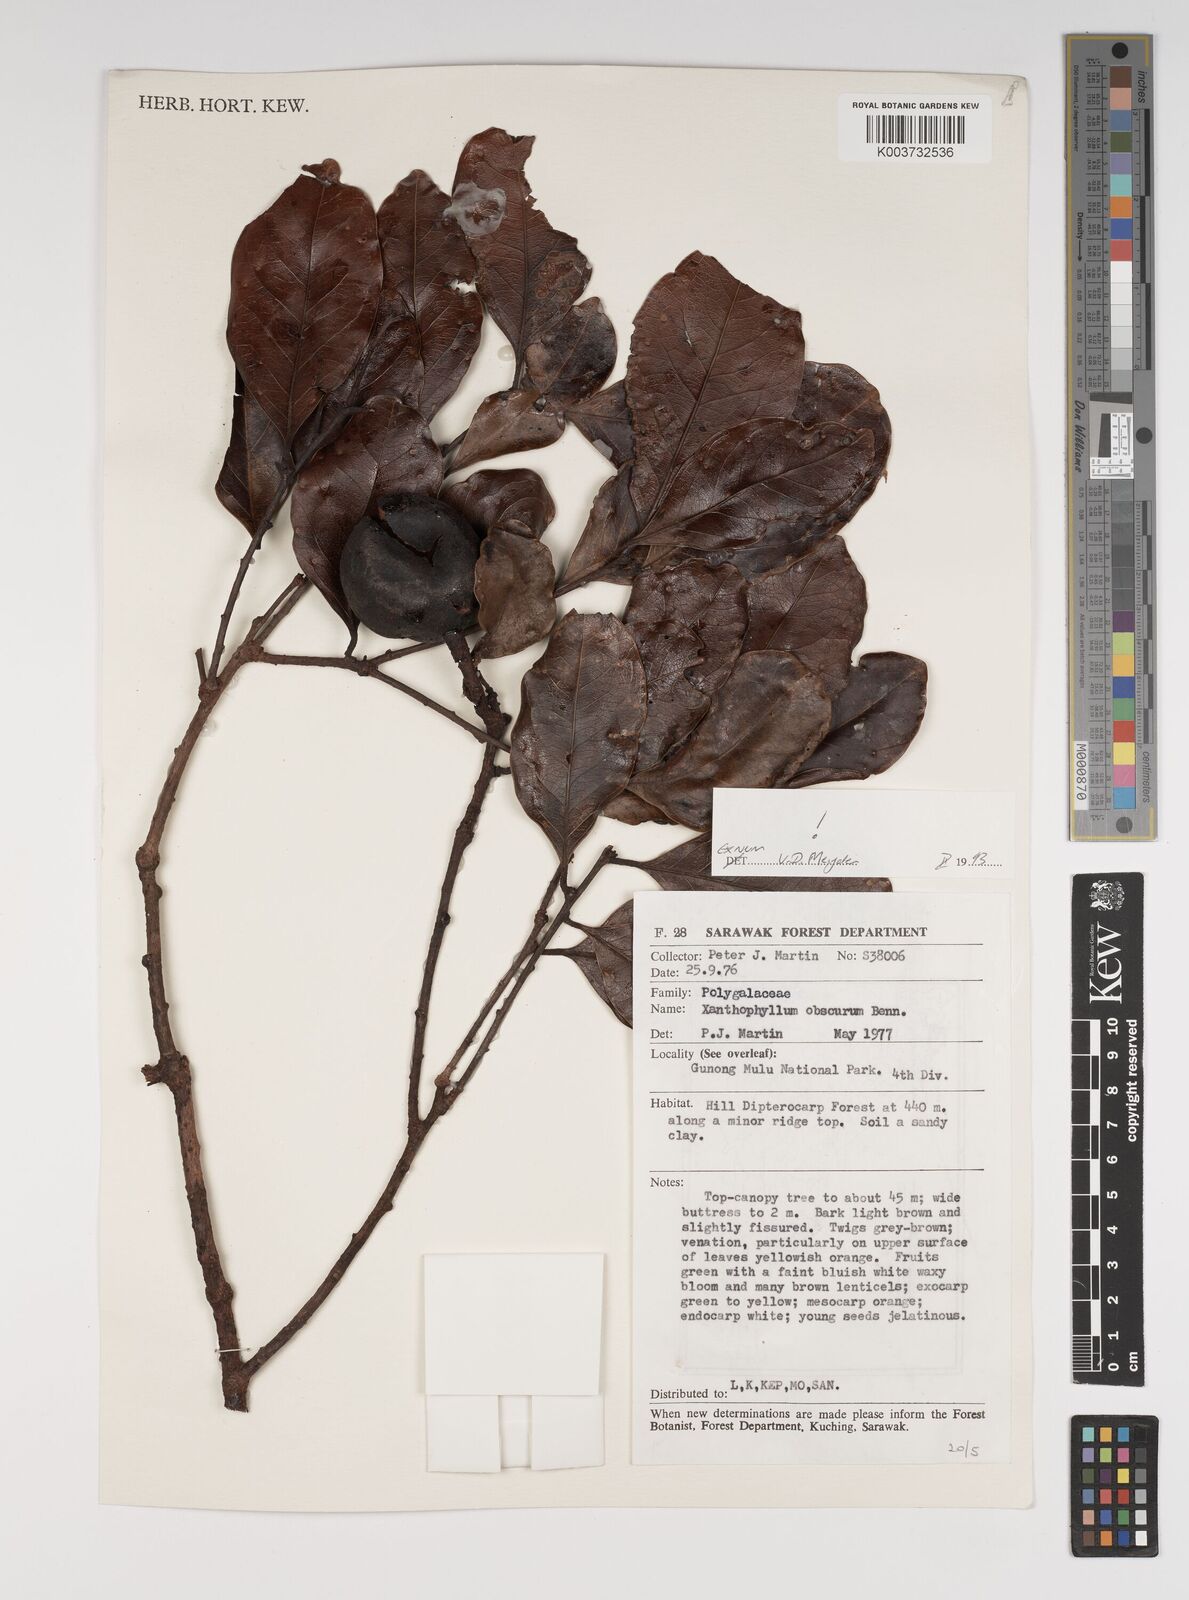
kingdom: Plantae
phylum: Tracheophyta
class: Magnoliopsida
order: Fabales
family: Polygalaceae
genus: Xanthophyllum
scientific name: Xanthophyllum obscurum
